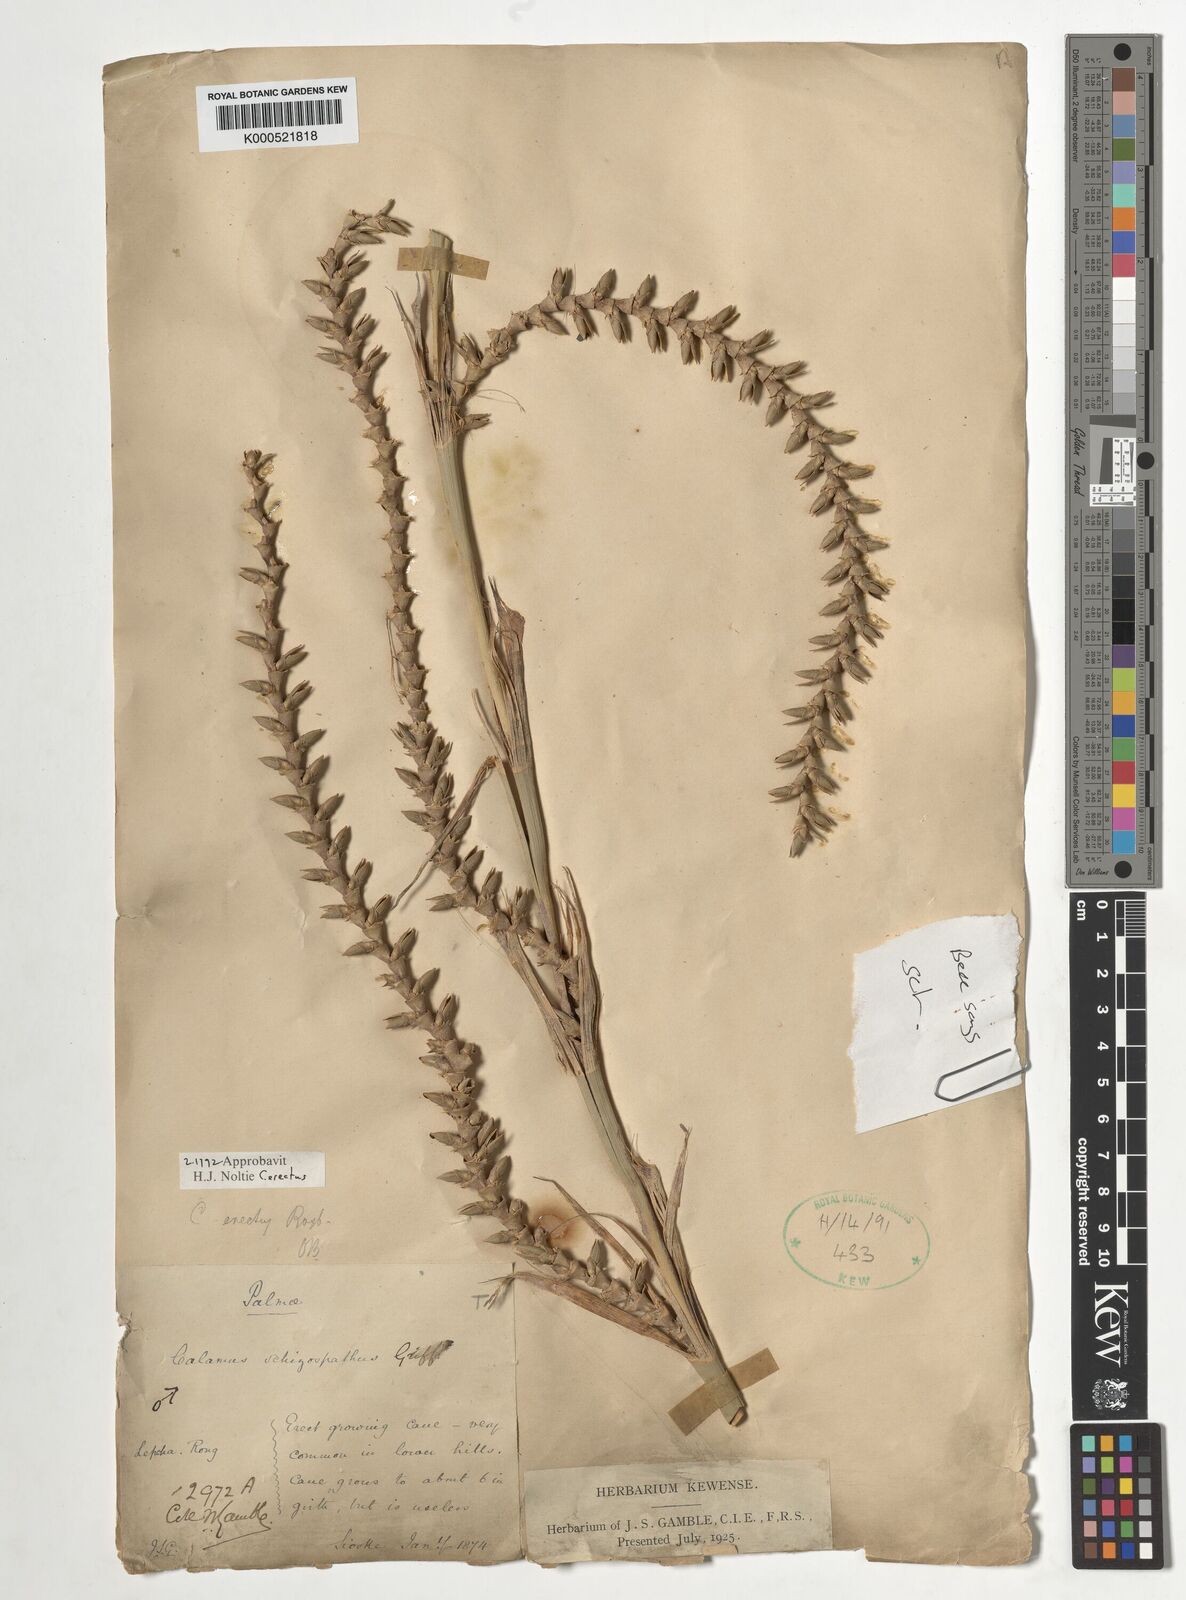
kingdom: Plantae
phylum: Tracheophyta
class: Liliopsida
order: Arecales
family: Arecaceae
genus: Calamus
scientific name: Calamus erectus
